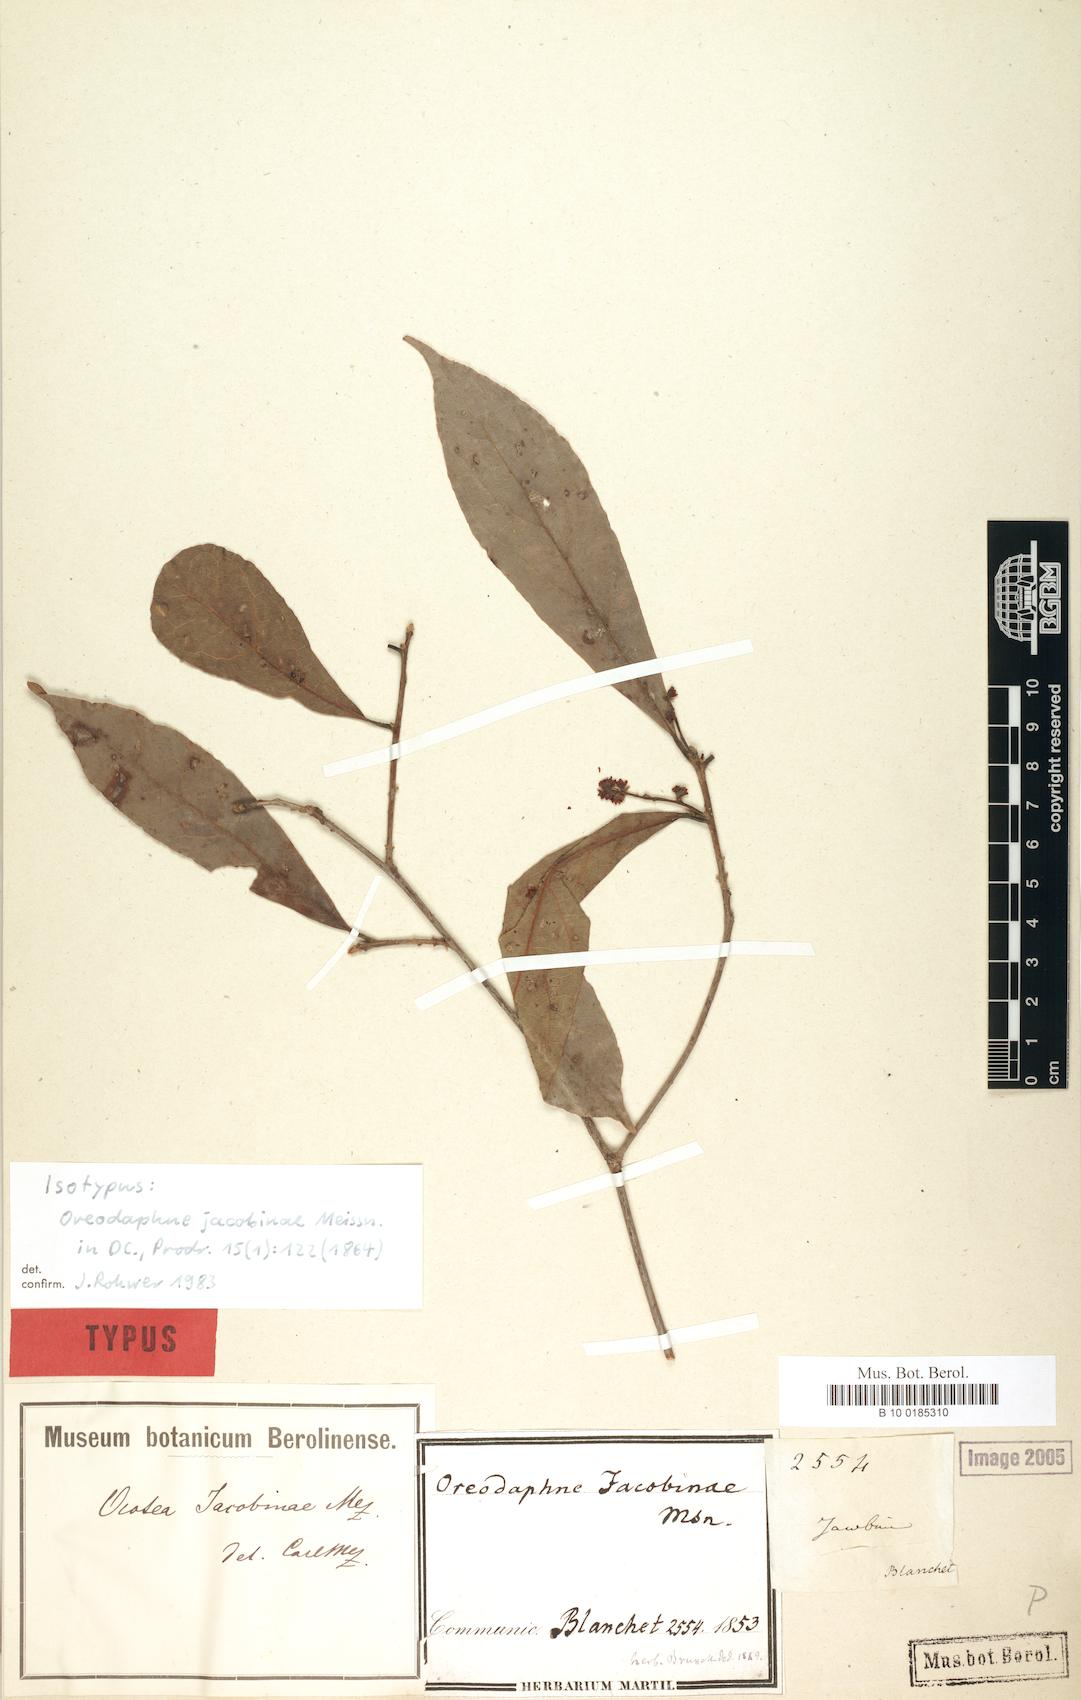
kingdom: Plantae
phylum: Tracheophyta
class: Magnoliopsida
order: Laurales
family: Lauraceae
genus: Andea
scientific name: Andea velutina
